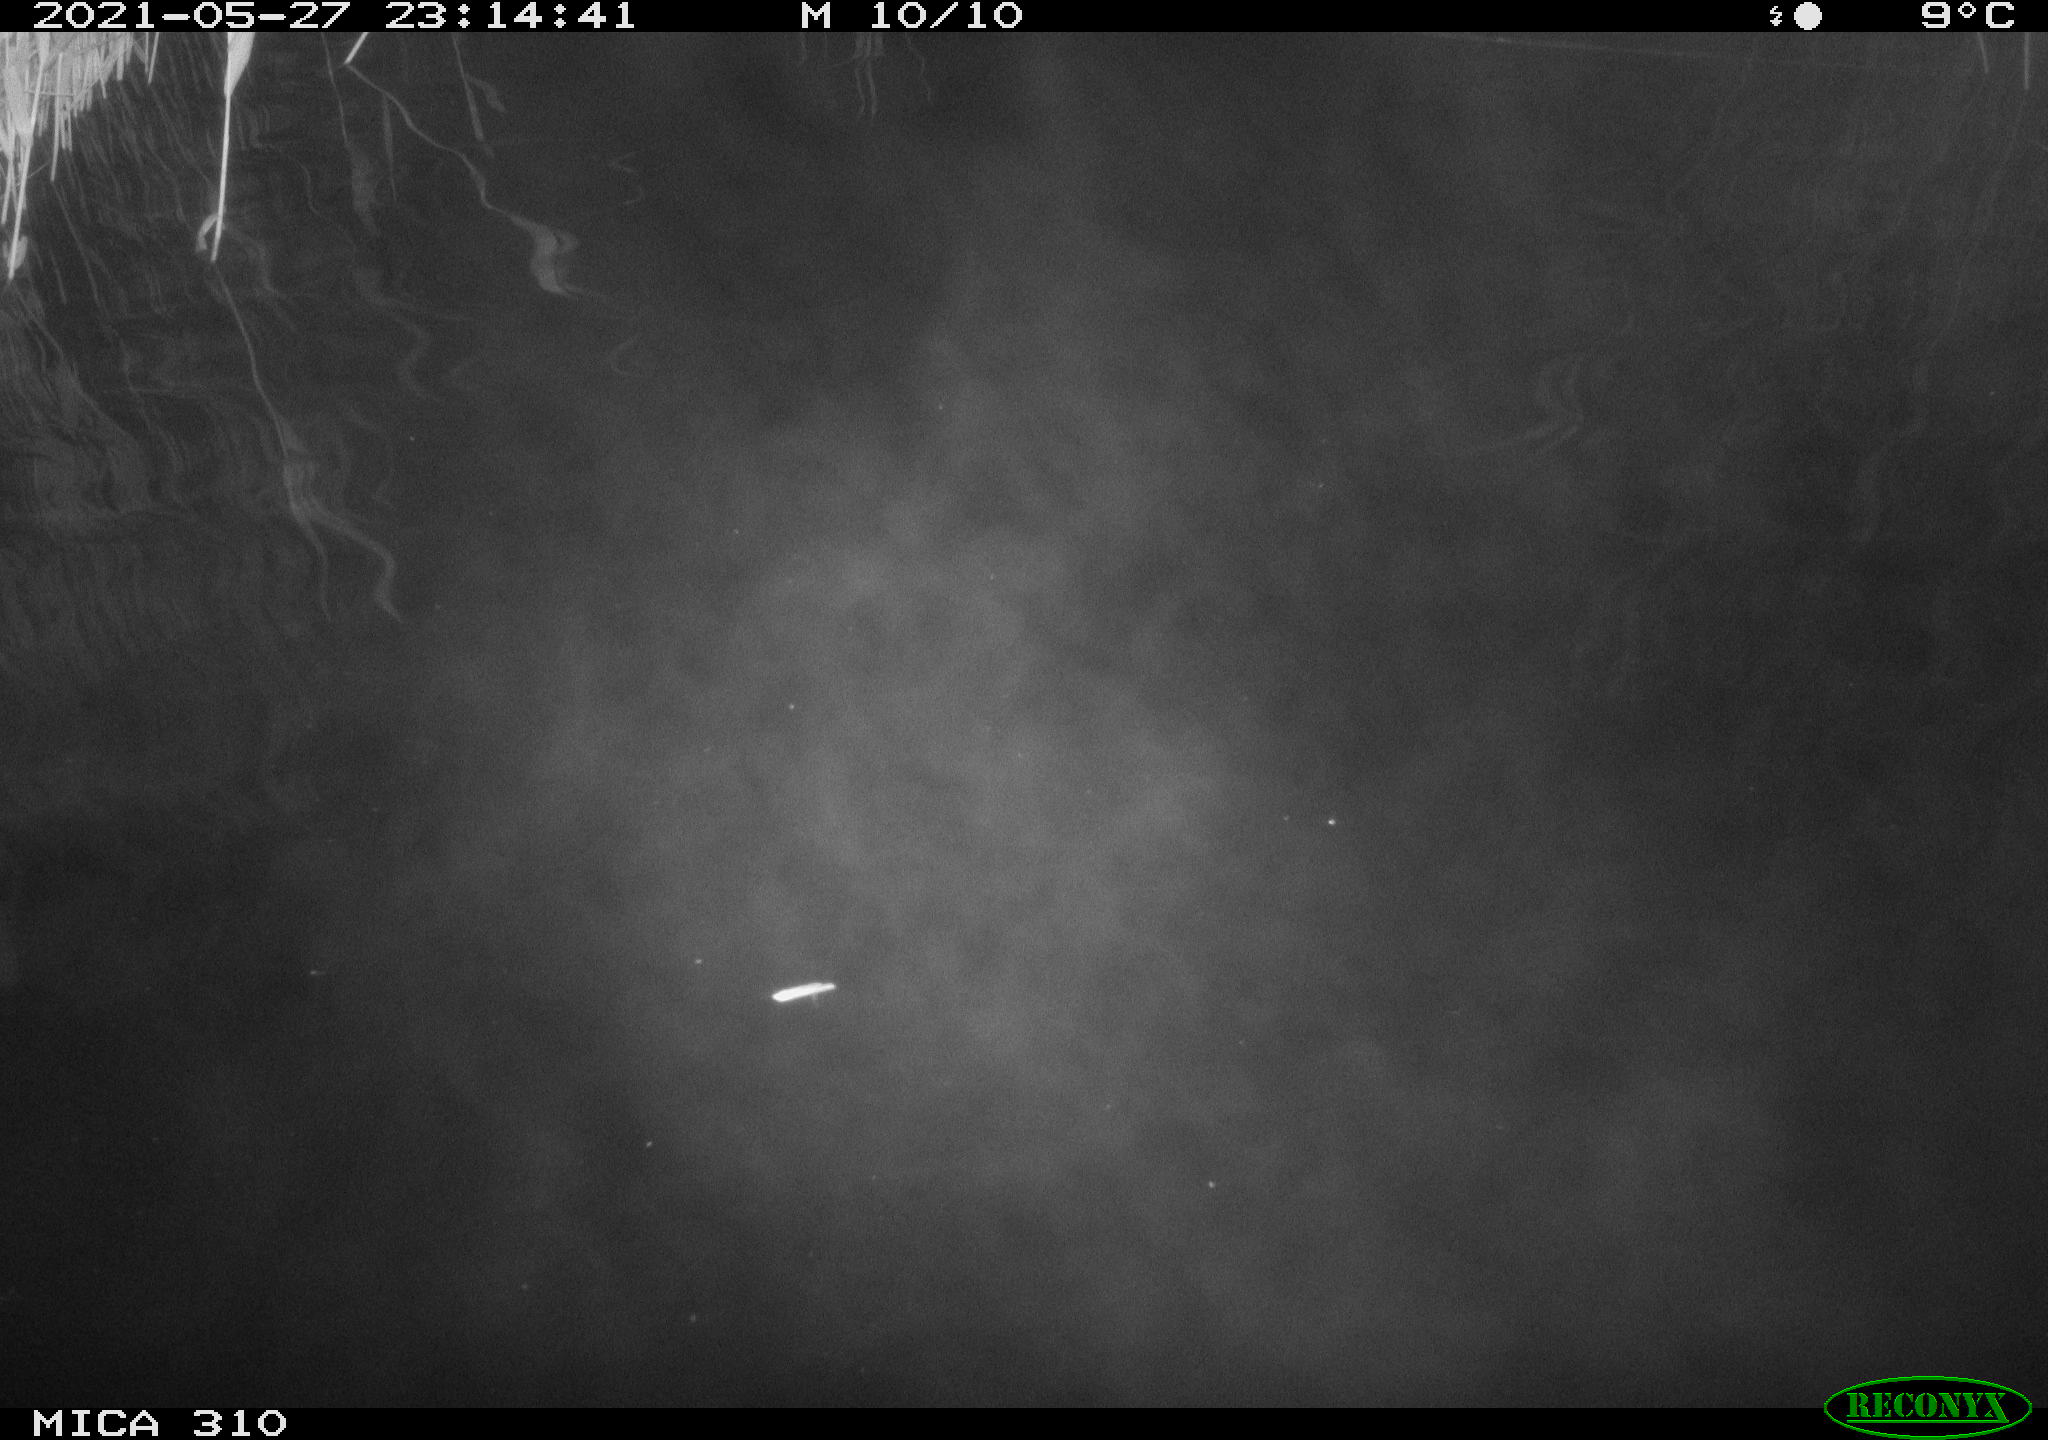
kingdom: Animalia
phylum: Chordata
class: Mammalia
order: Rodentia
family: Cricetidae
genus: Ondatra
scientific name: Ondatra zibethicus
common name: Muskrat
